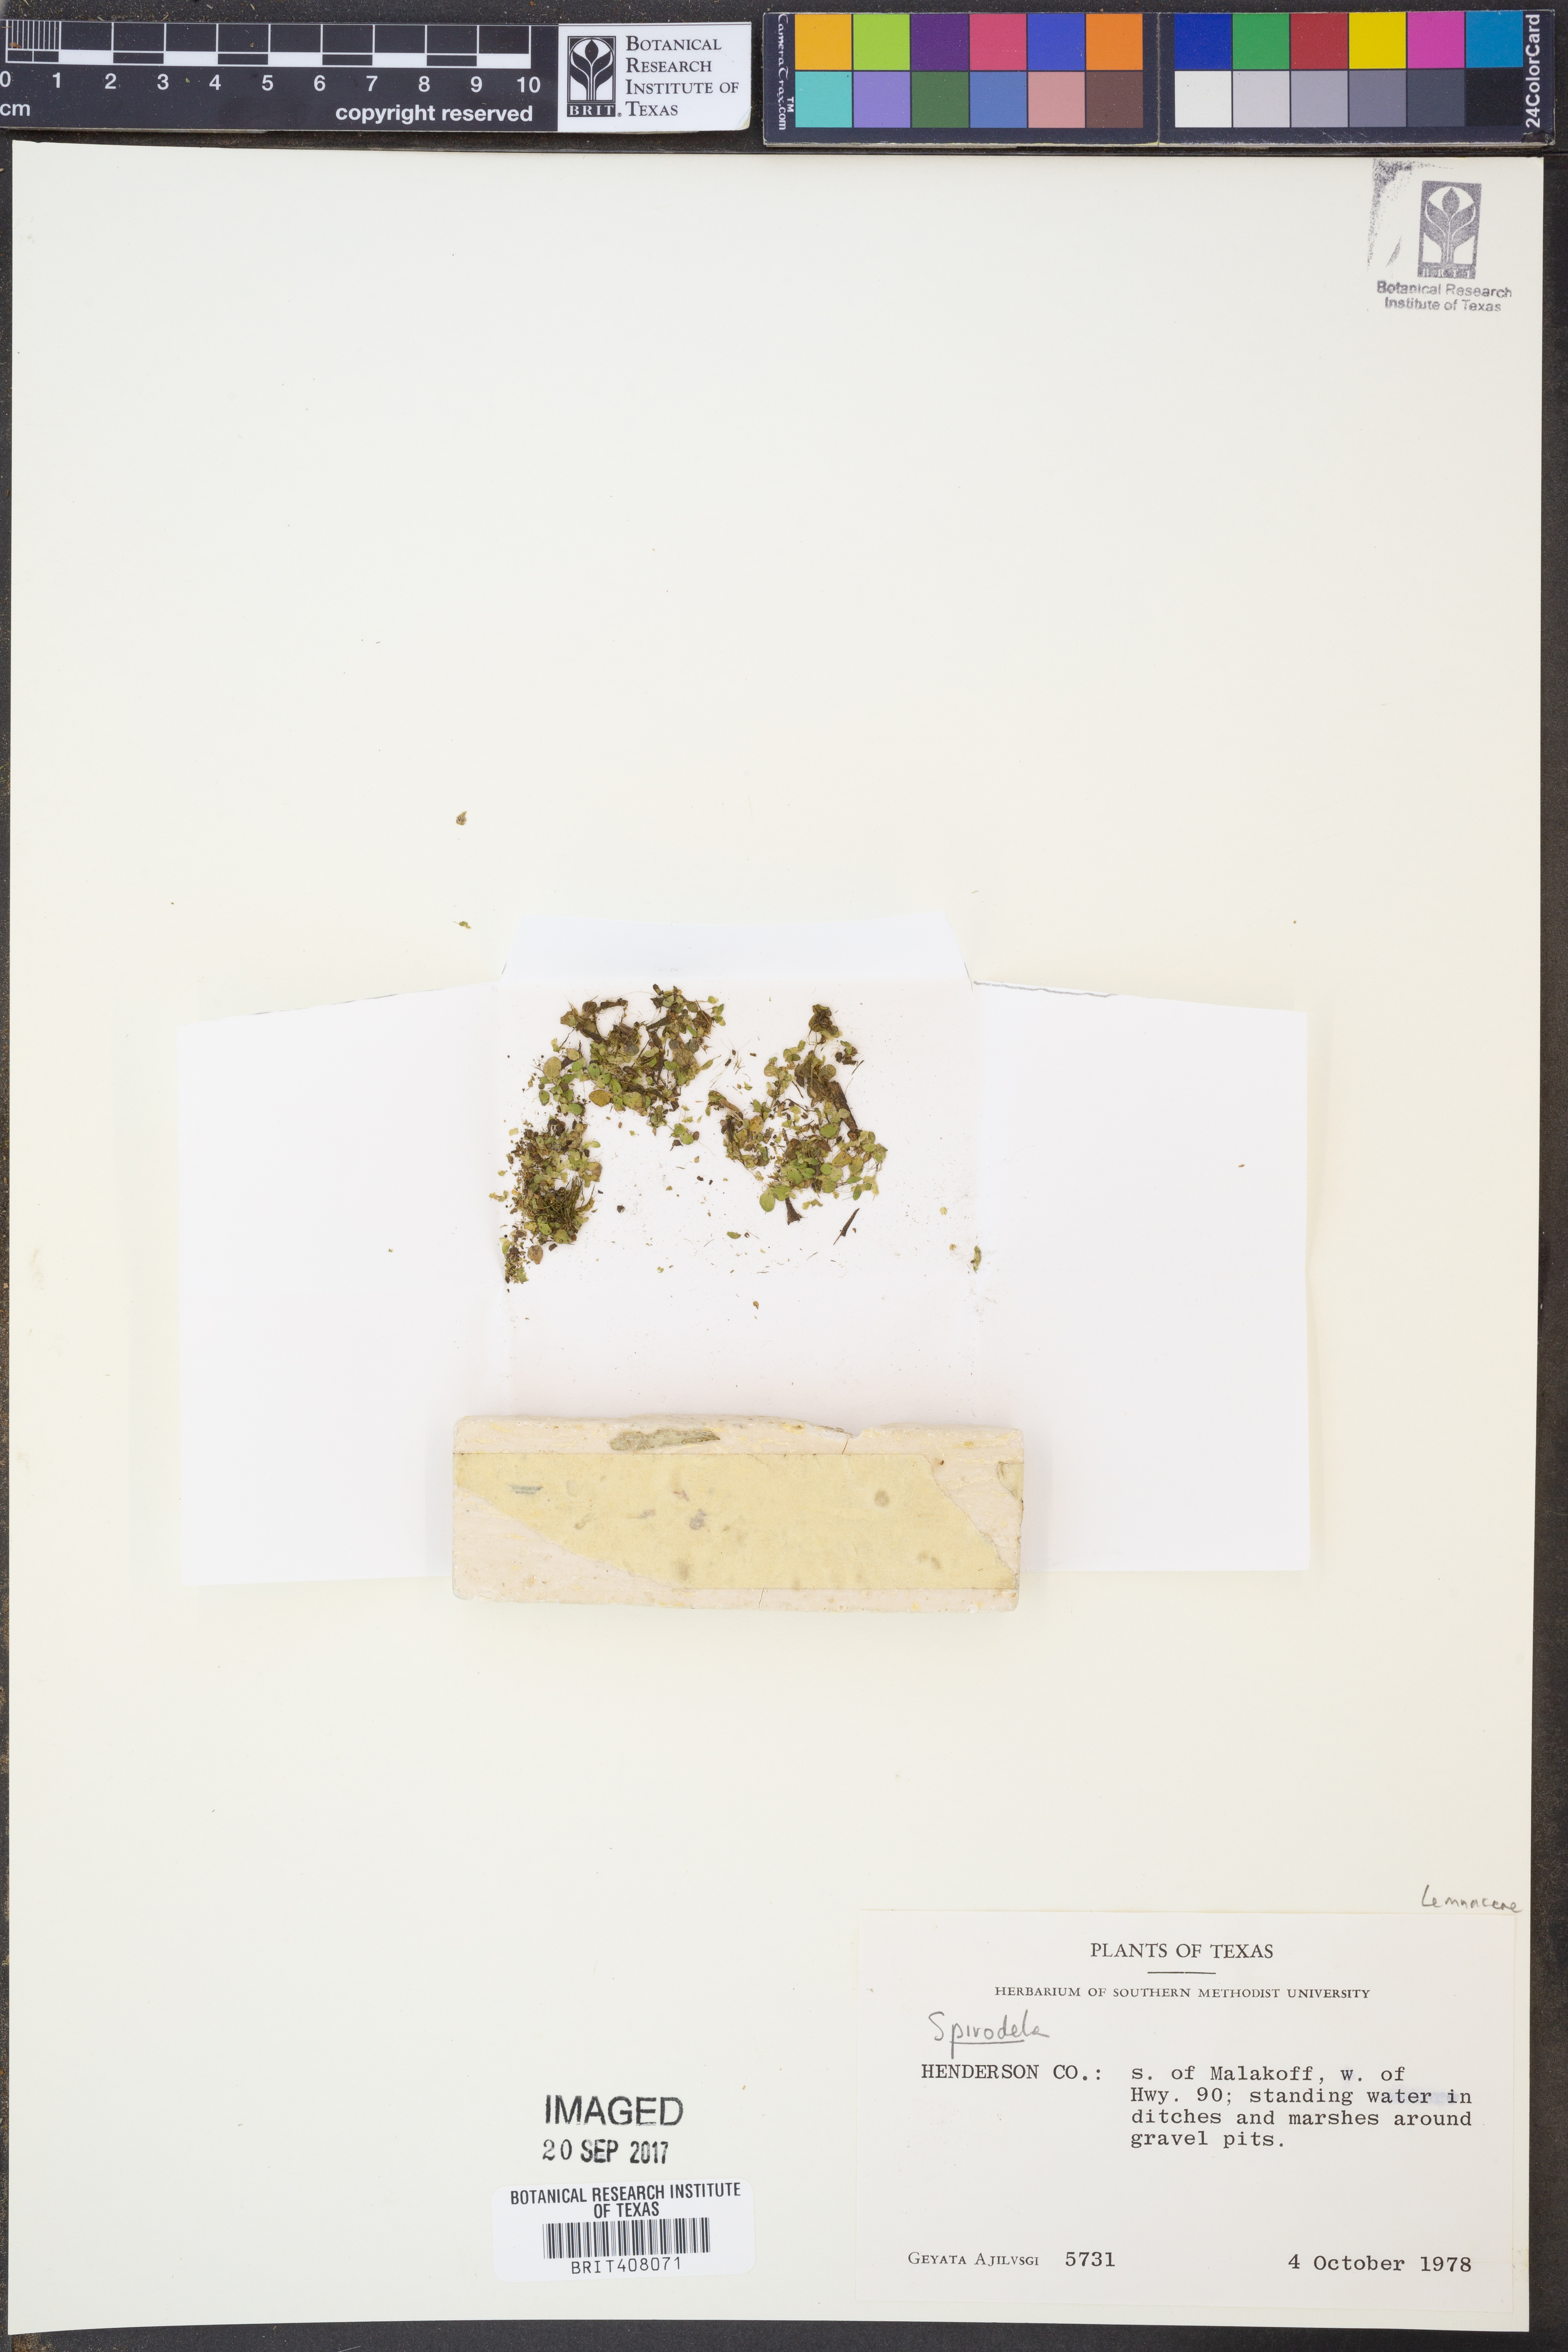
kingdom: Plantae
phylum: Tracheophyta
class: Liliopsida
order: Alismatales
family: Araceae
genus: Spirodela
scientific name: Spirodela
